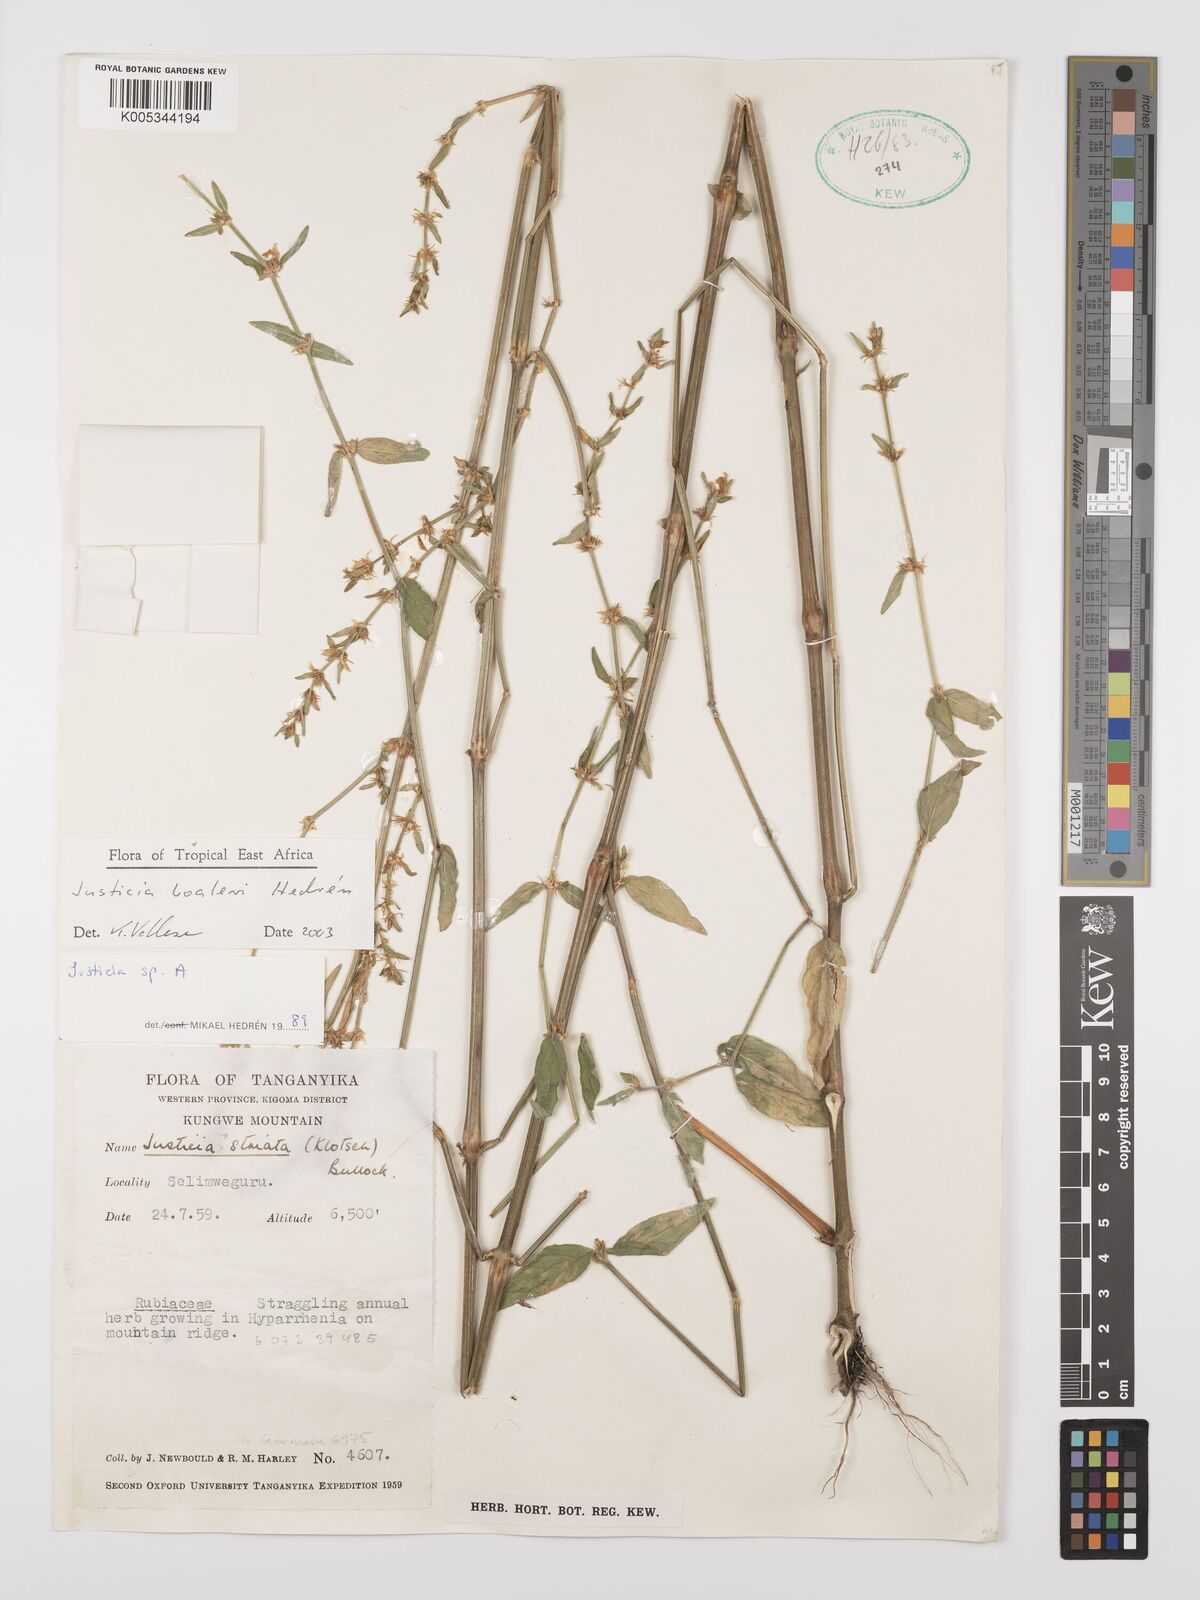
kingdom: Plantae
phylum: Tracheophyta
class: Magnoliopsida
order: Lamiales
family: Acanthaceae
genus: Justicia
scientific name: Justicia boaleri
